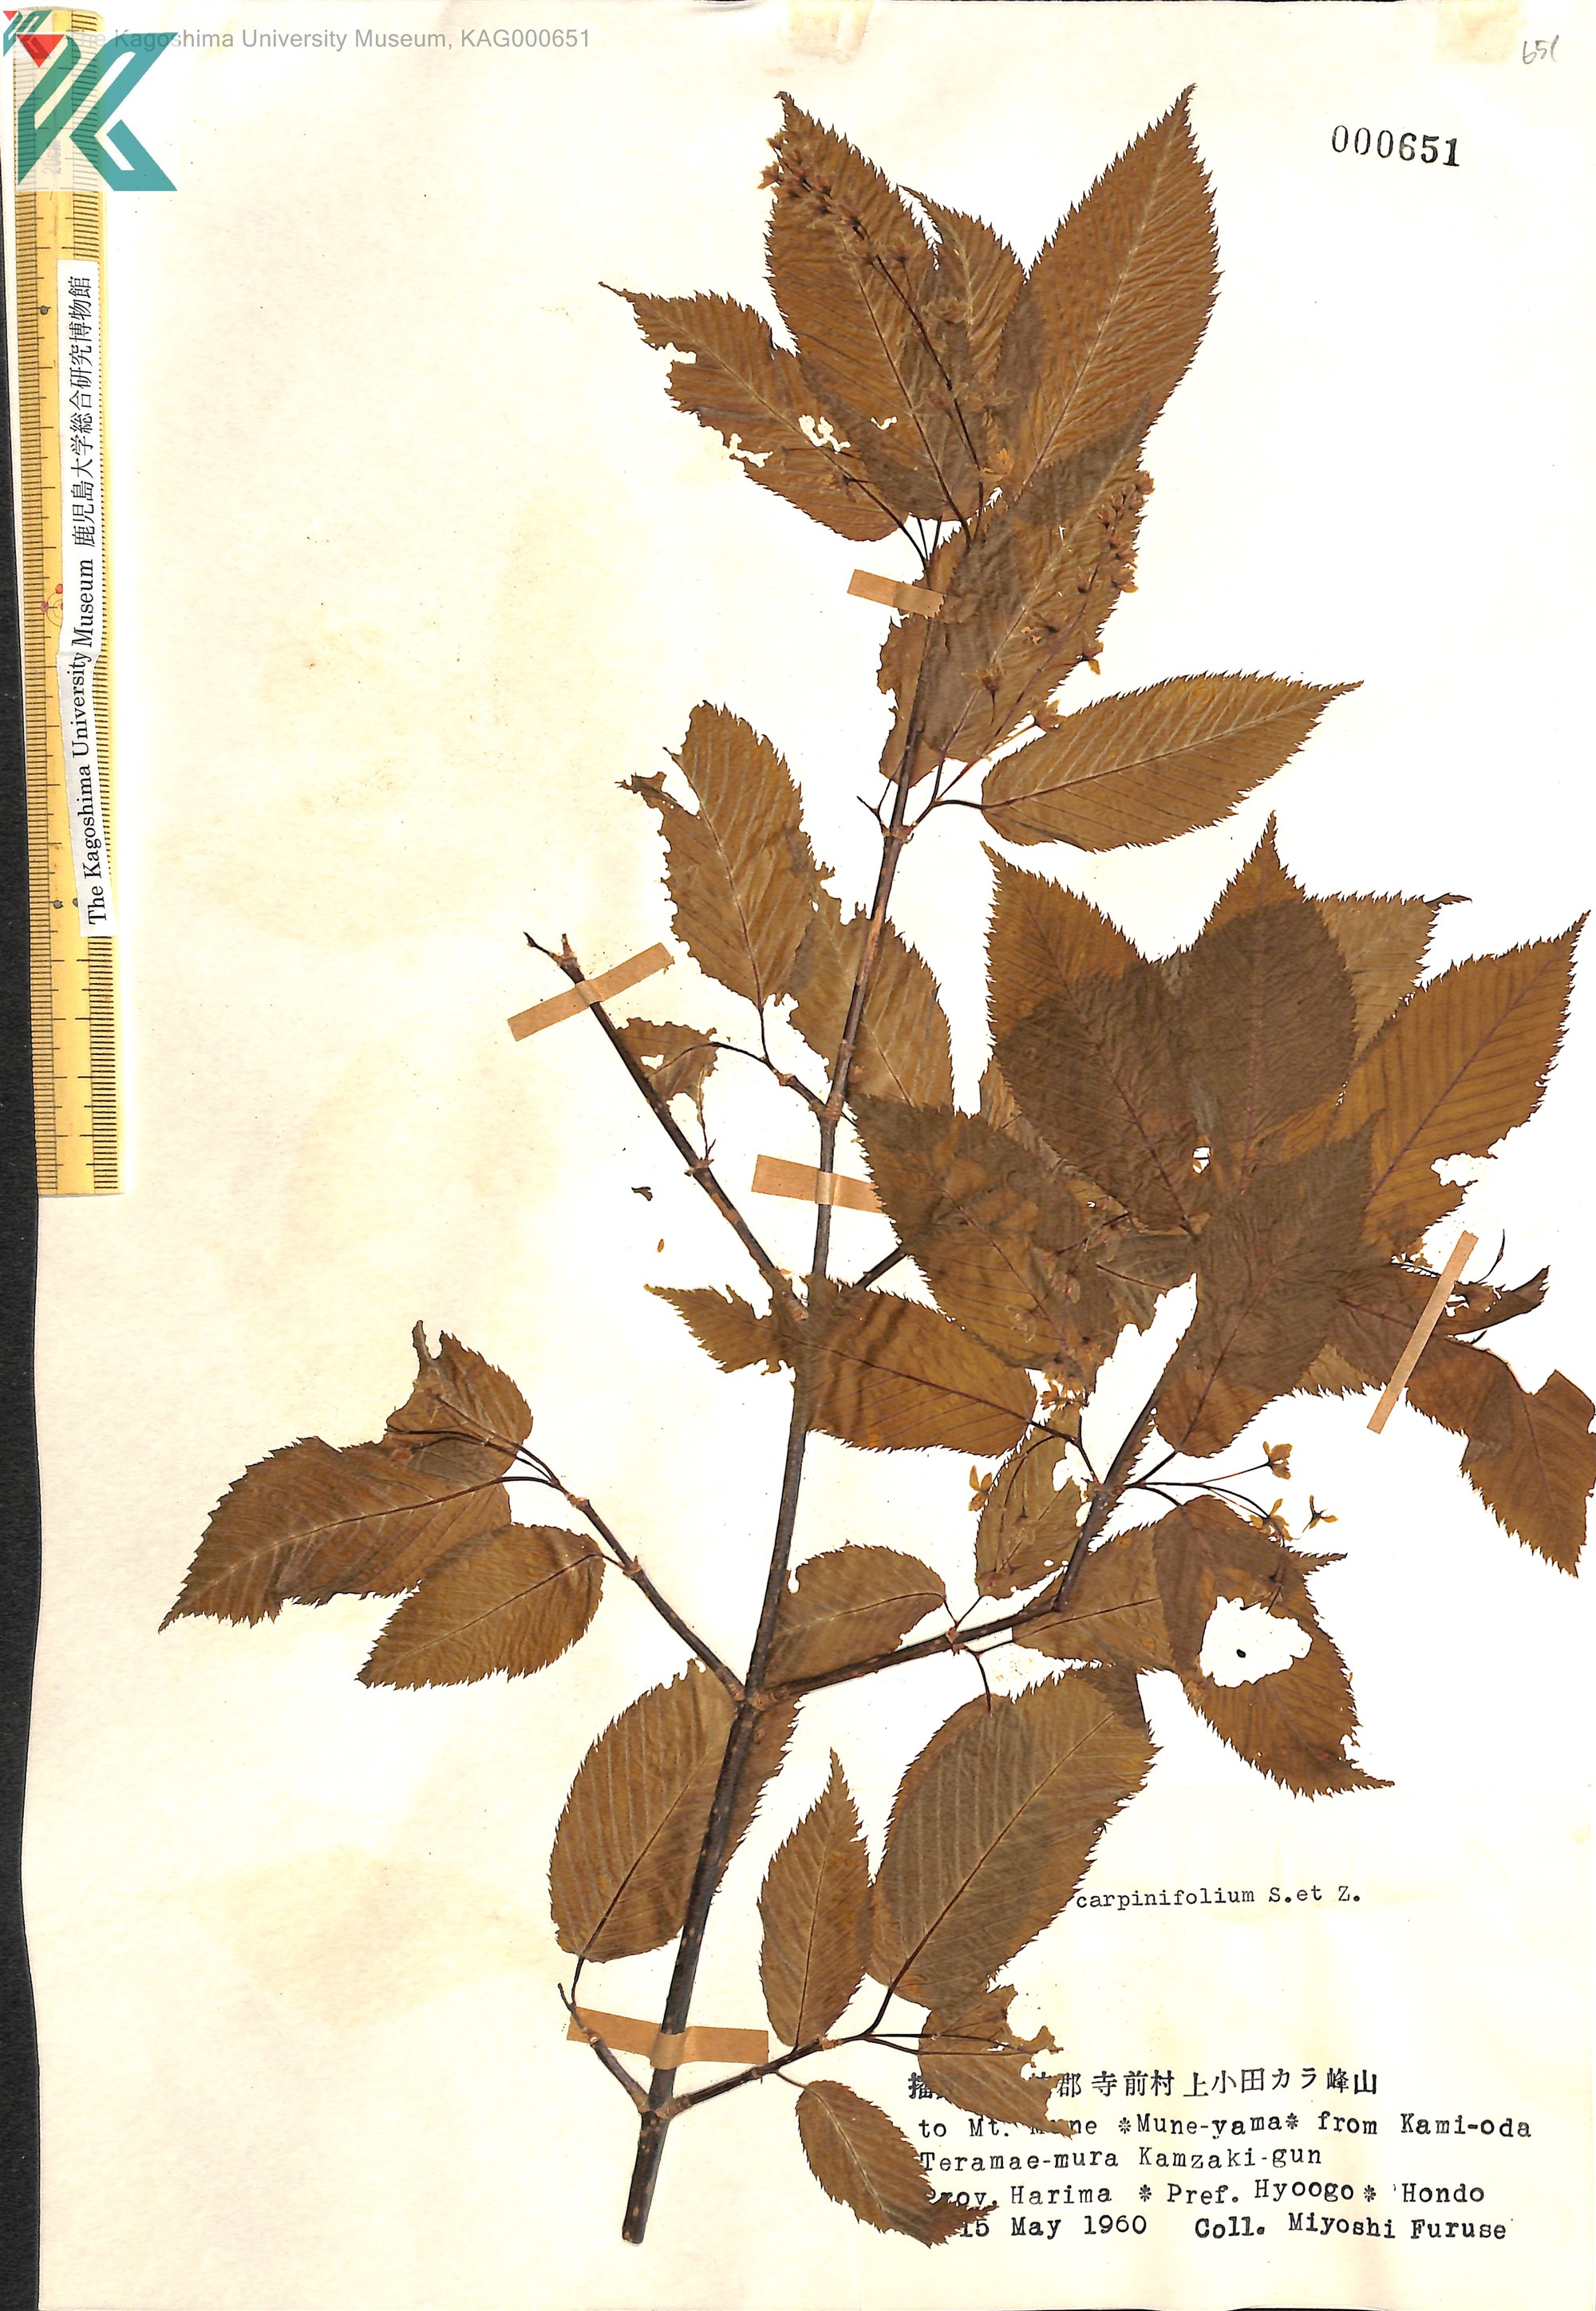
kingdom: Plantae
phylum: Tracheophyta
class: Magnoliopsida
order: Sapindales
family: Sapindaceae
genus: Acer
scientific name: Acer carpinifolium
